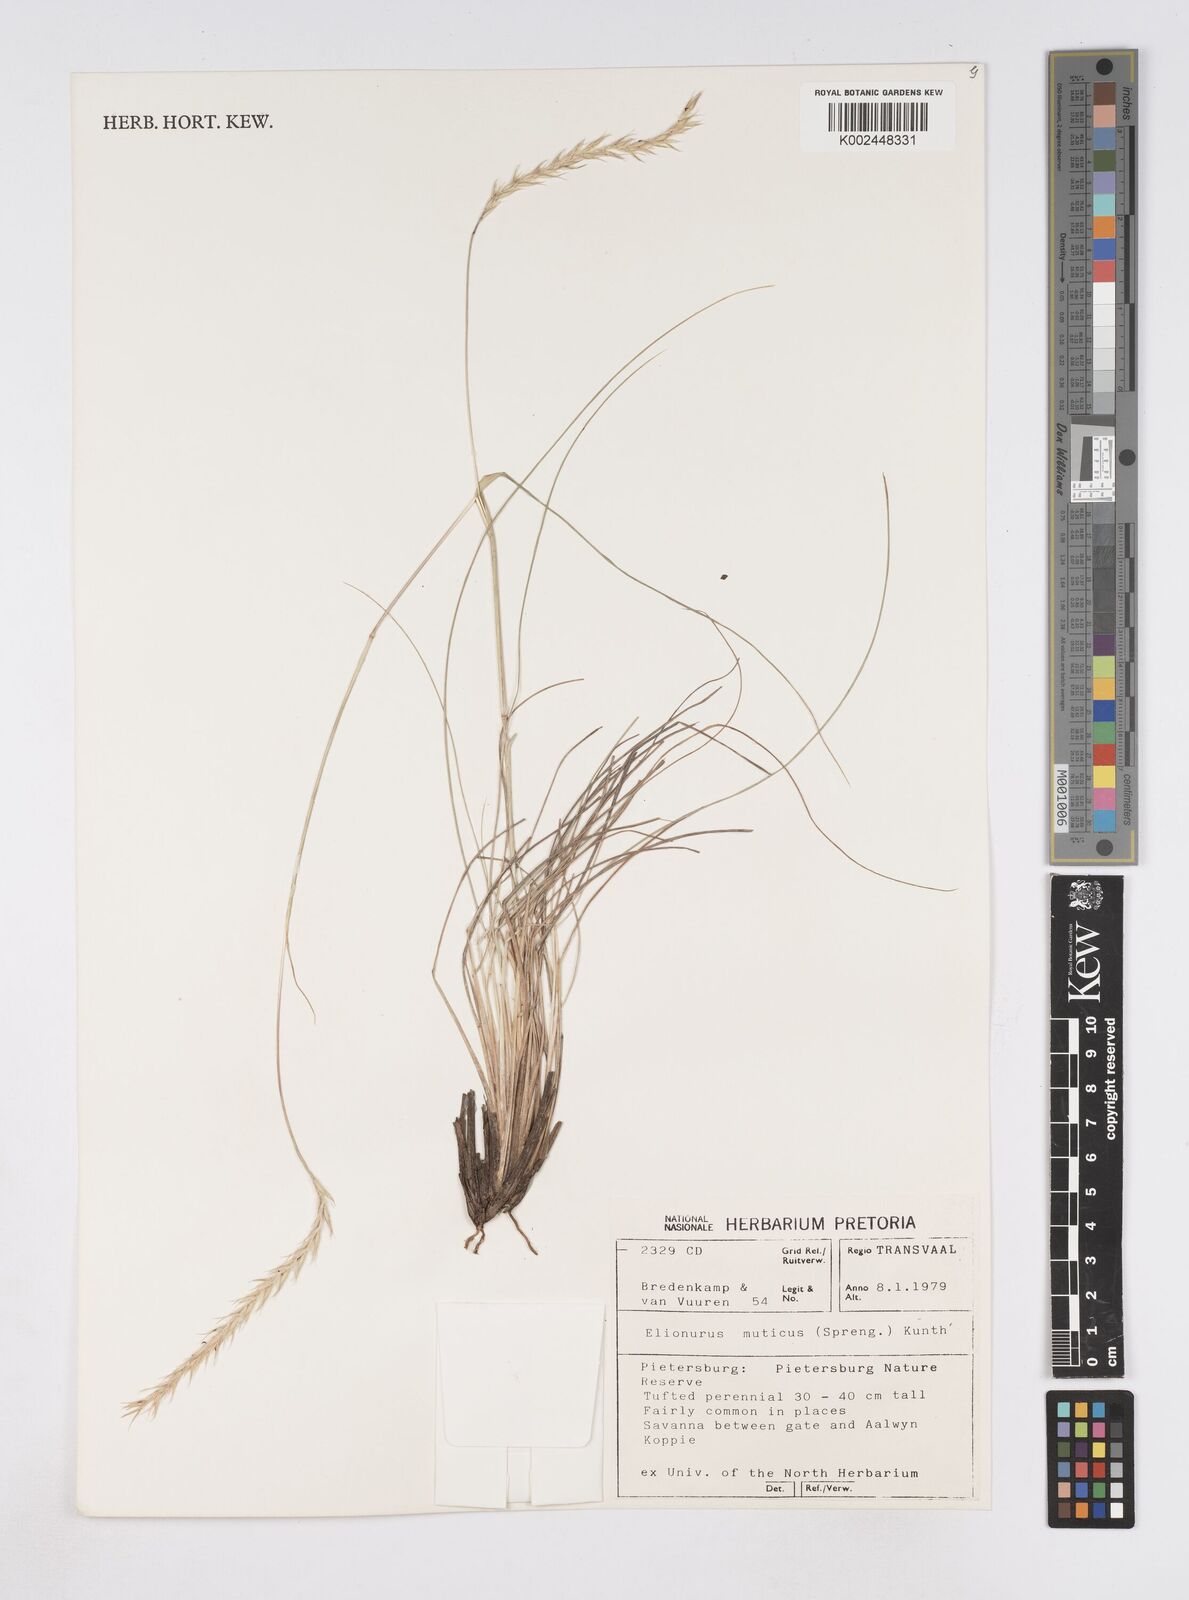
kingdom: Plantae
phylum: Tracheophyta
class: Liliopsida
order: Poales
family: Poaceae
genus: Elionurus
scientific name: Elionurus muticus
